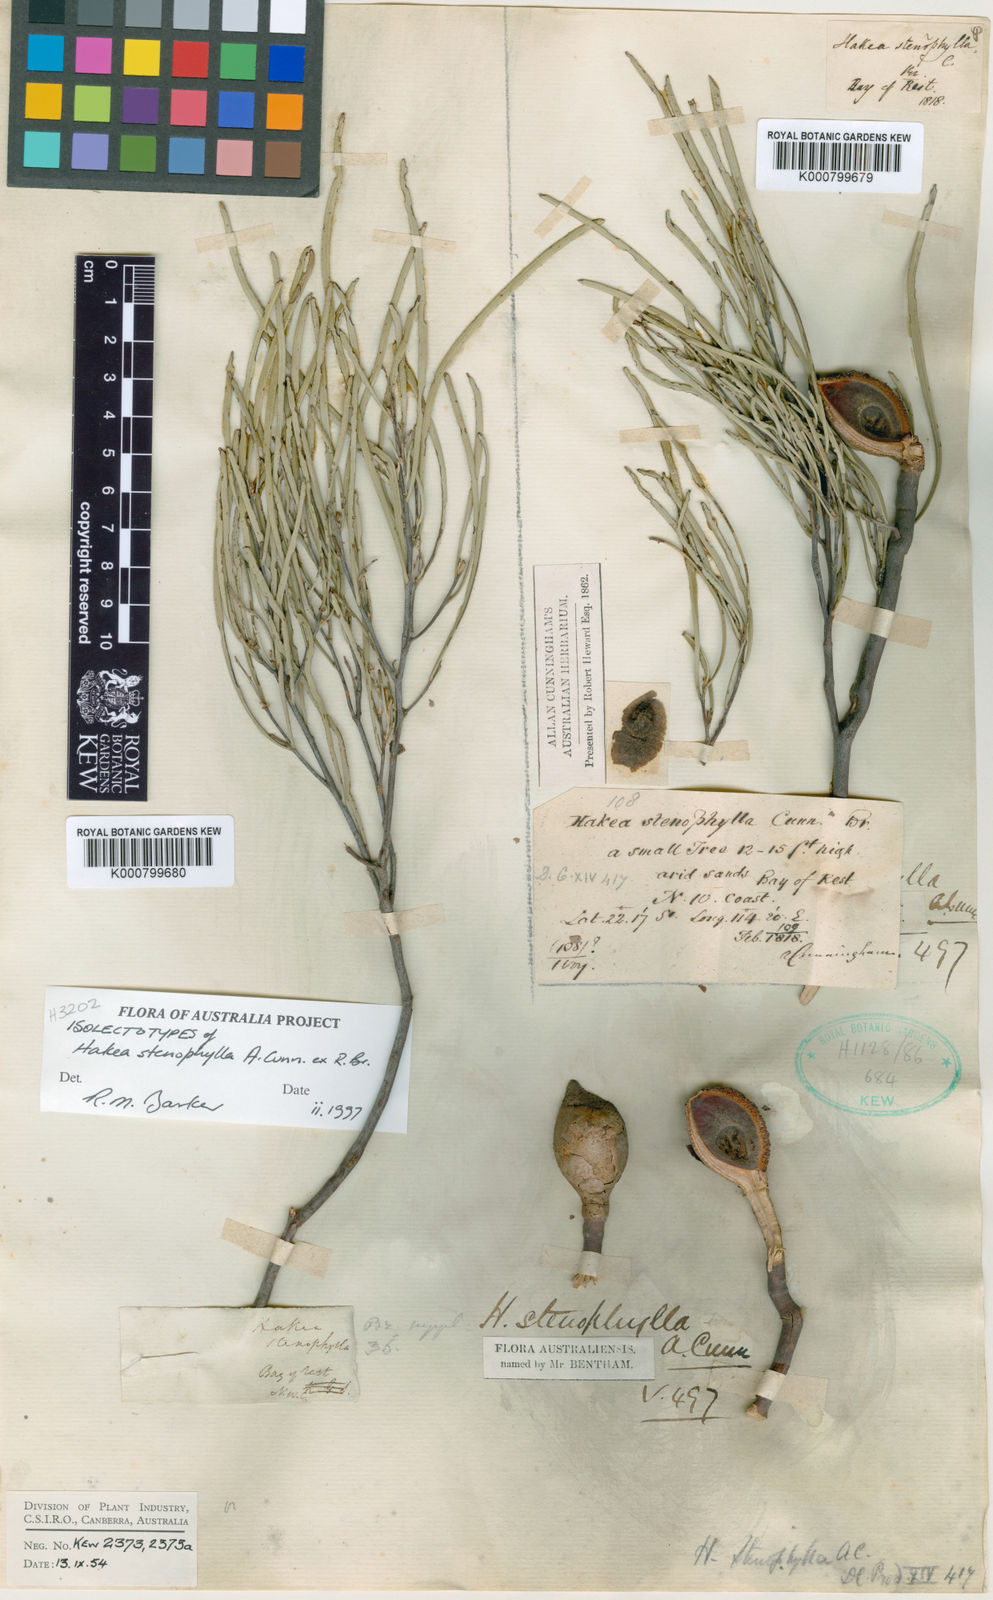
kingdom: Plantae
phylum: Tracheophyta
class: Magnoliopsida
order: Proteales
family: Proteaceae
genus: Hakea
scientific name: Hakea trineura
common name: Three-veined hakea
